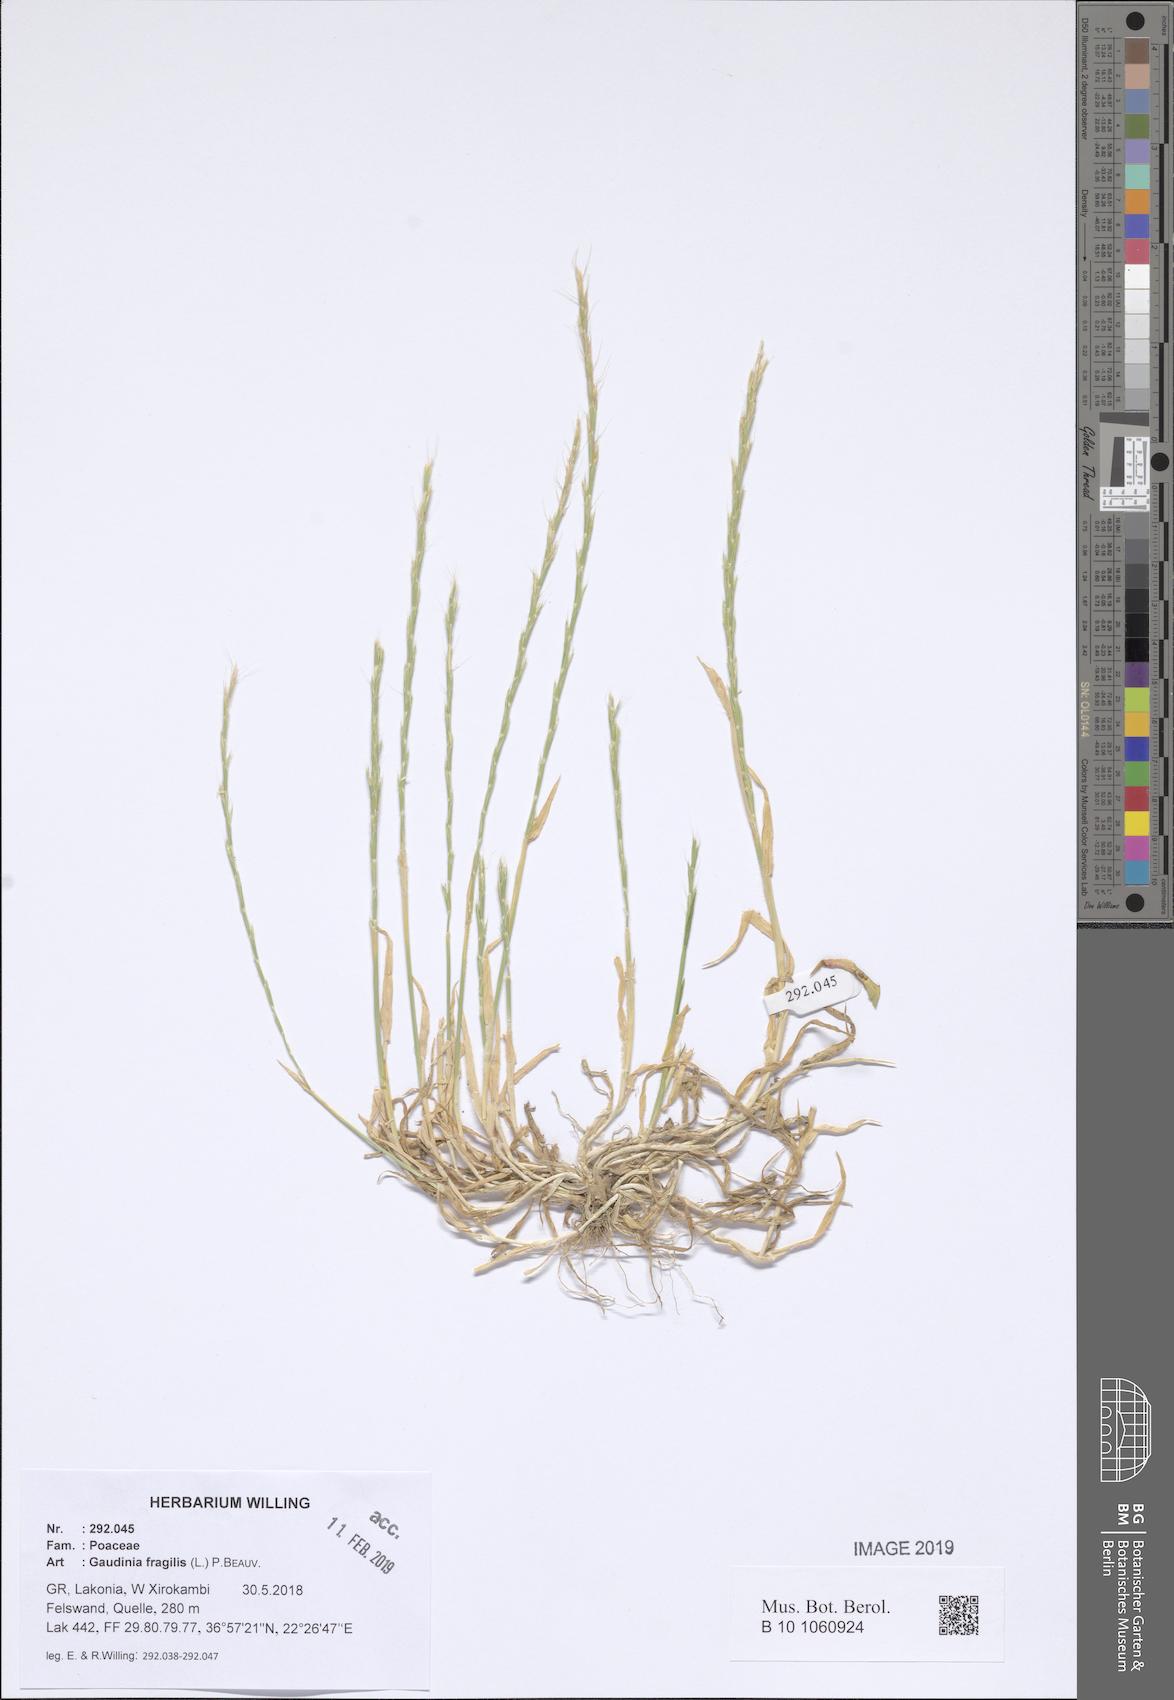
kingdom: Plantae
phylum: Tracheophyta
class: Liliopsida
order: Poales
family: Poaceae
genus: Gaudinia
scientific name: Gaudinia fragilis
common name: French oat-grass
